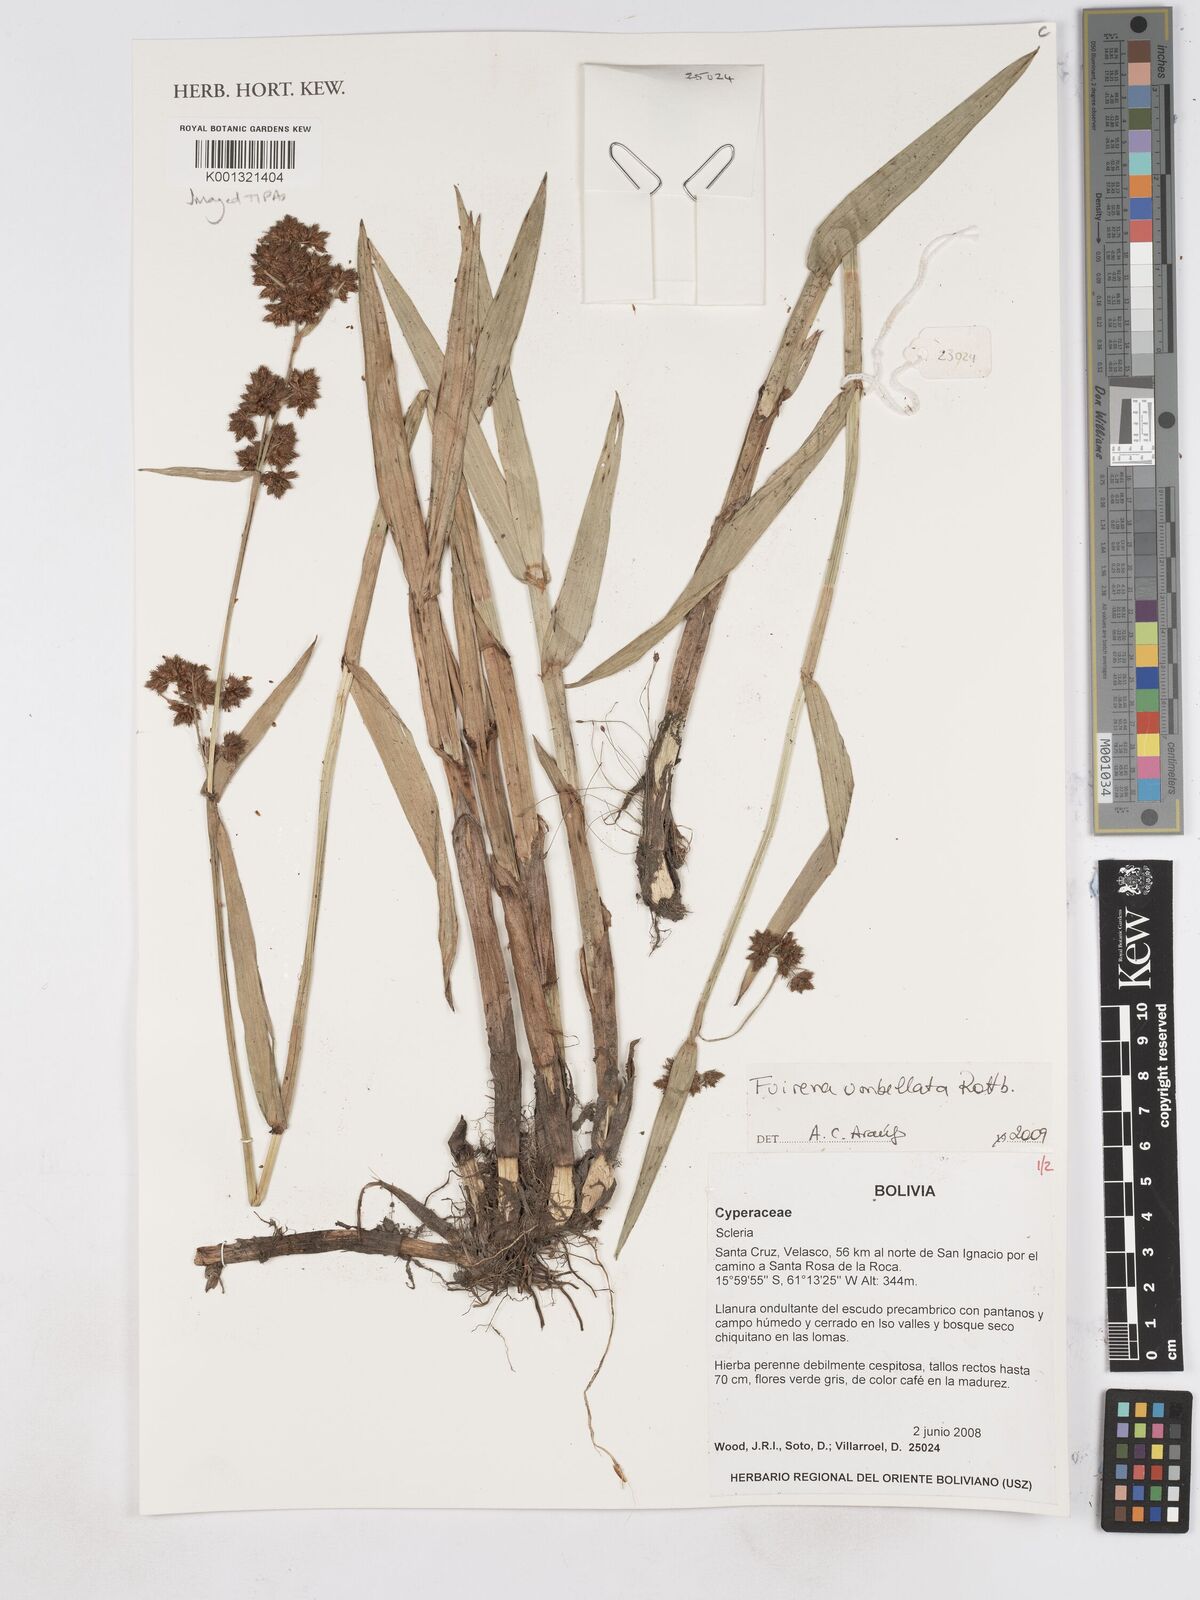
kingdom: Plantae
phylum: Tracheophyta
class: Liliopsida
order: Poales
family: Cyperaceae
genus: Fuirena
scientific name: Fuirena umbellata
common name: Yefen
